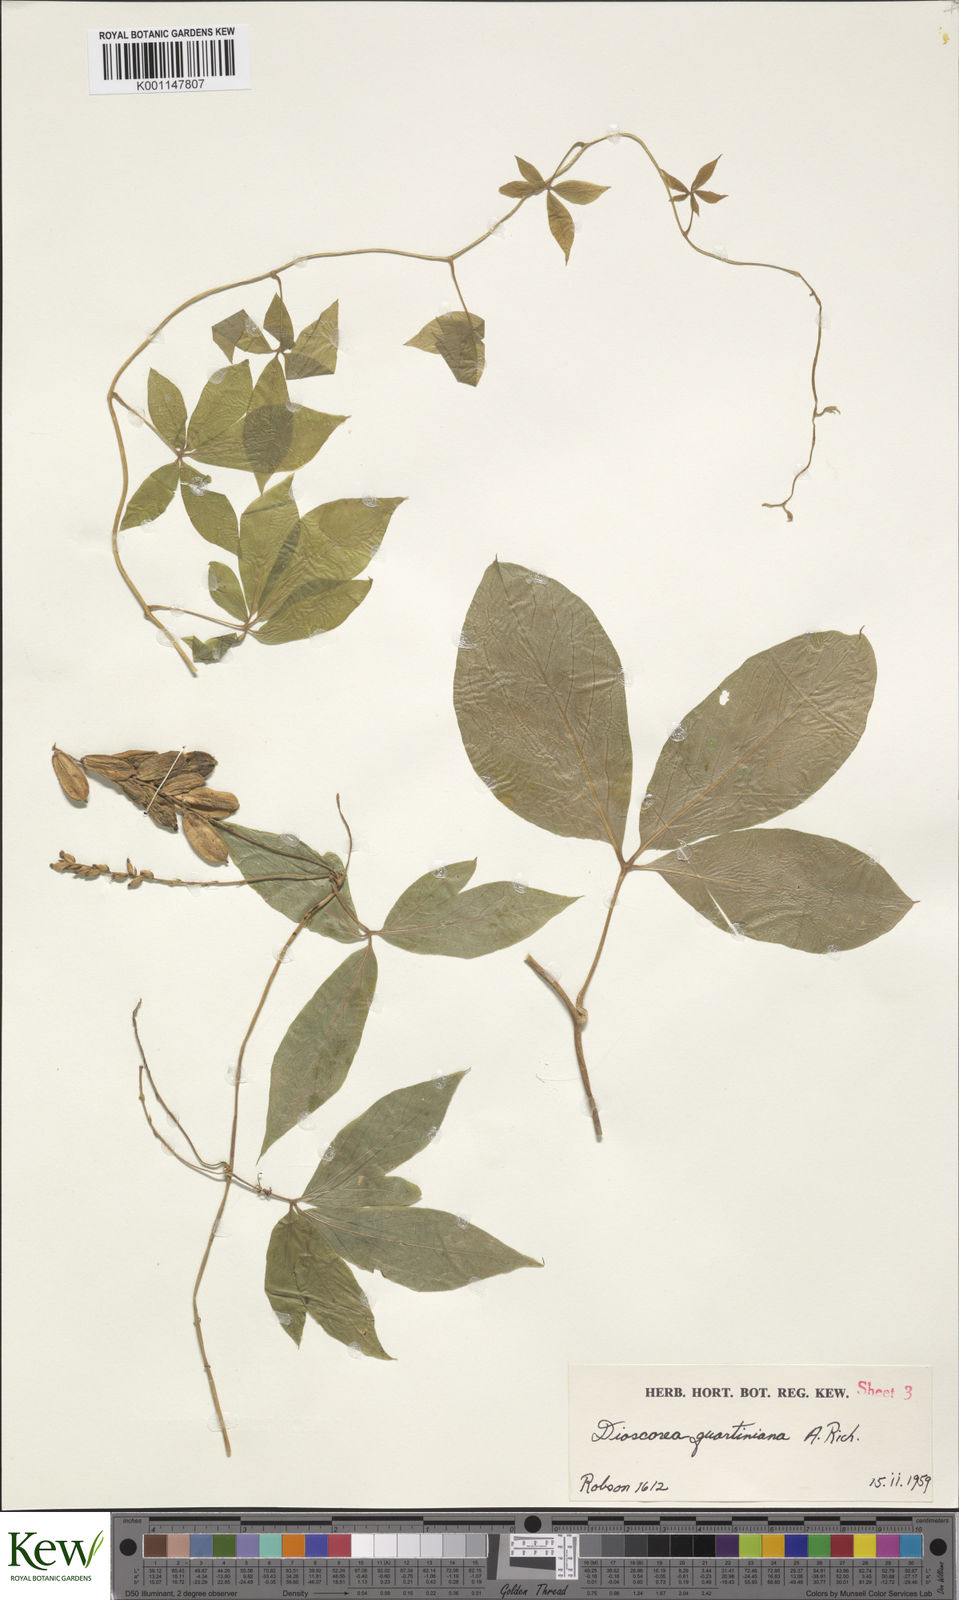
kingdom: Plantae
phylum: Tracheophyta
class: Liliopsida
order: Dioscoreales
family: Dioscoreaceae
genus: Dioscorea
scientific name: Dioscorea quartiniana
